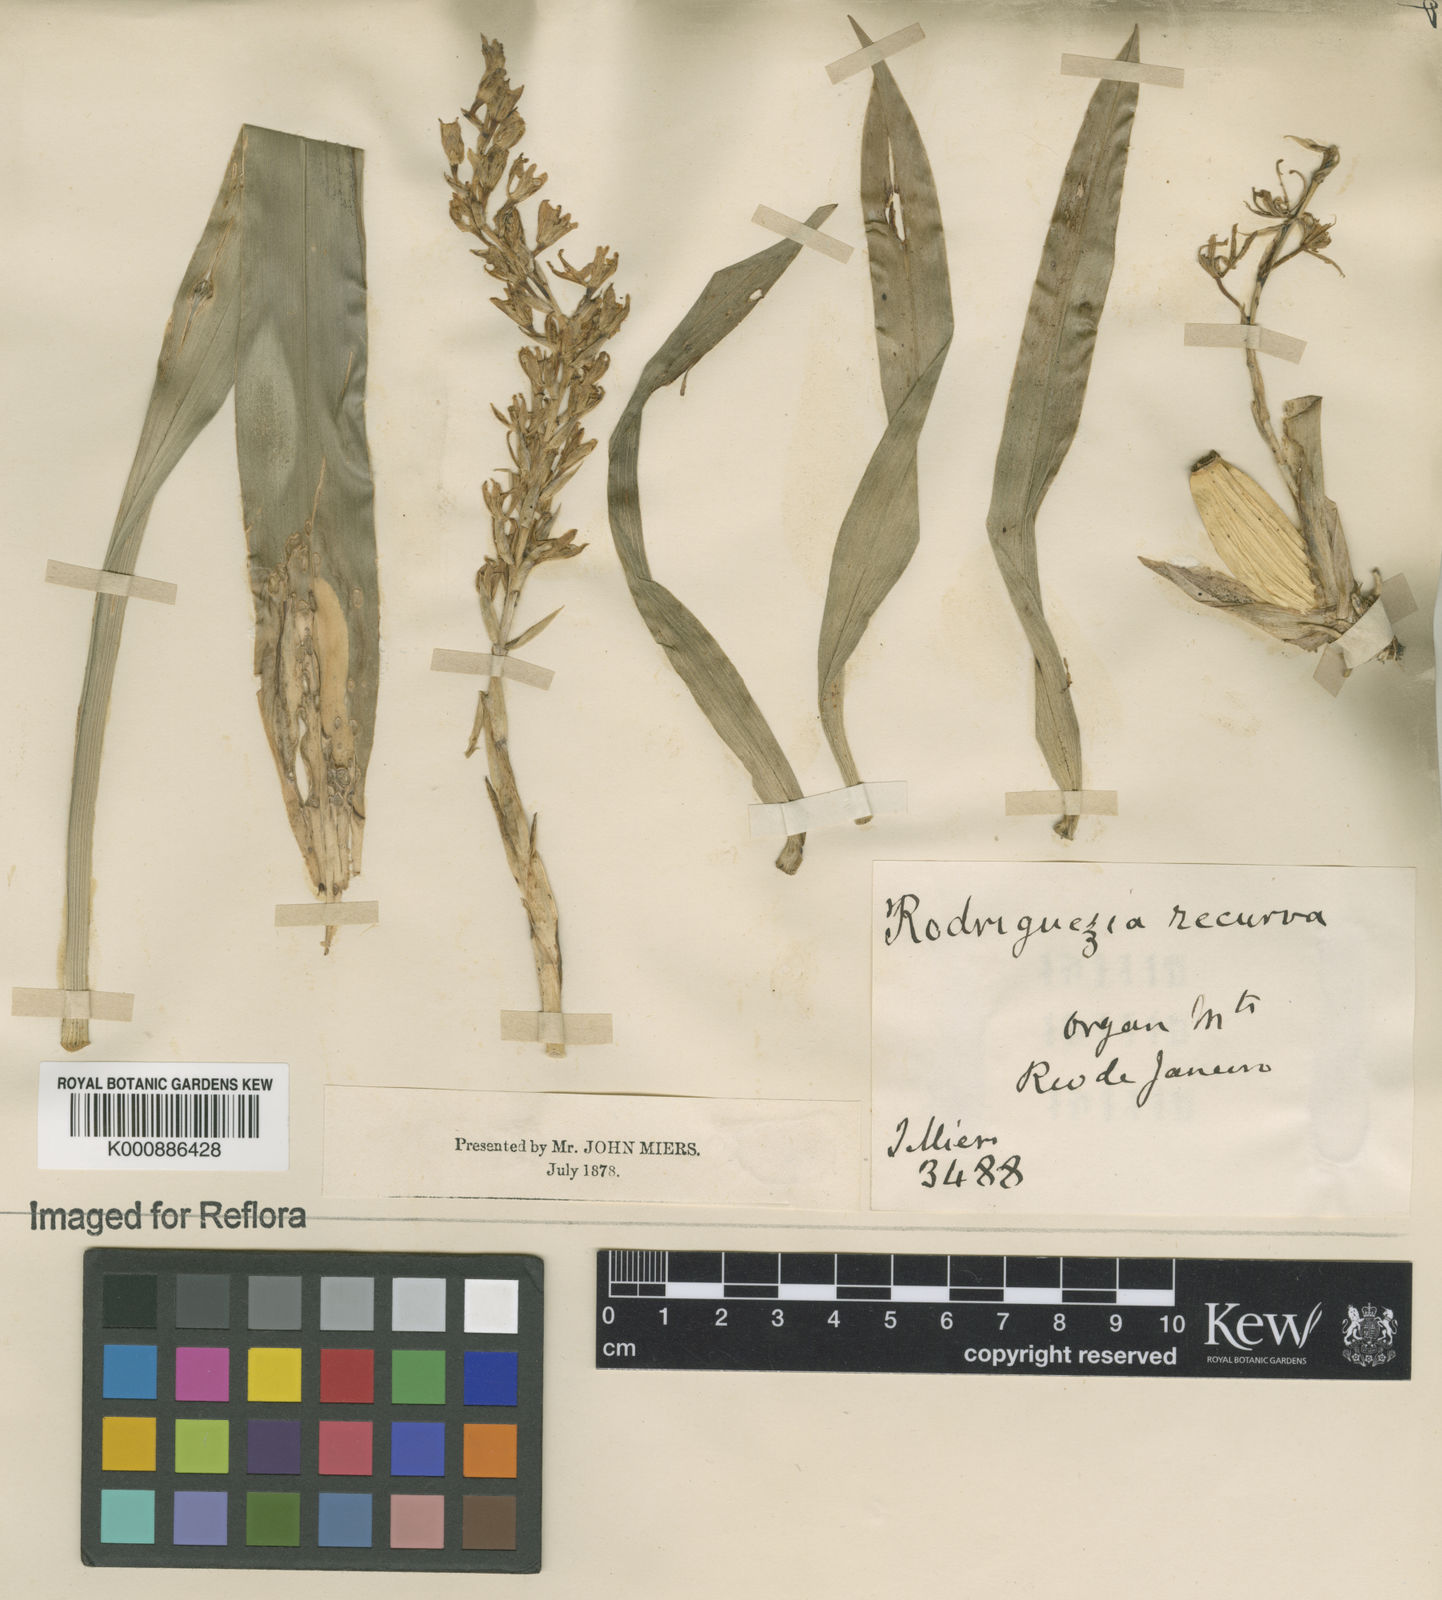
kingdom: Plantae
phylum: Tracheophyta
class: Liliopsida
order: Asparagales
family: Orchidaceae
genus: Gomesa
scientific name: Gomesa recurva
